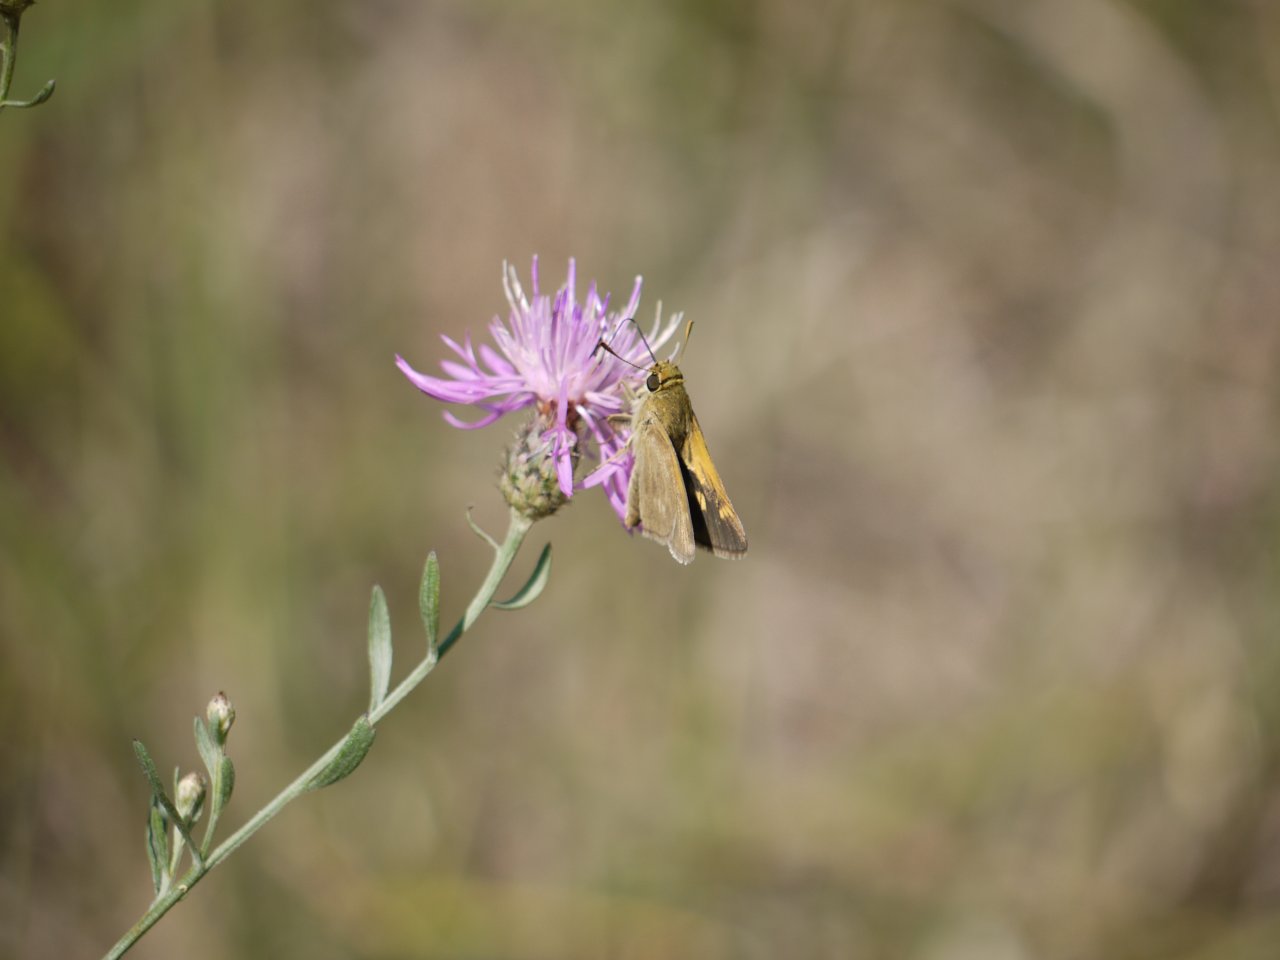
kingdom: Animalia
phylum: Arthropoda
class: Insecta
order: Lepidoptera
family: Hesperiidae
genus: Polites
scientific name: Polites
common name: Crossline Skipper
